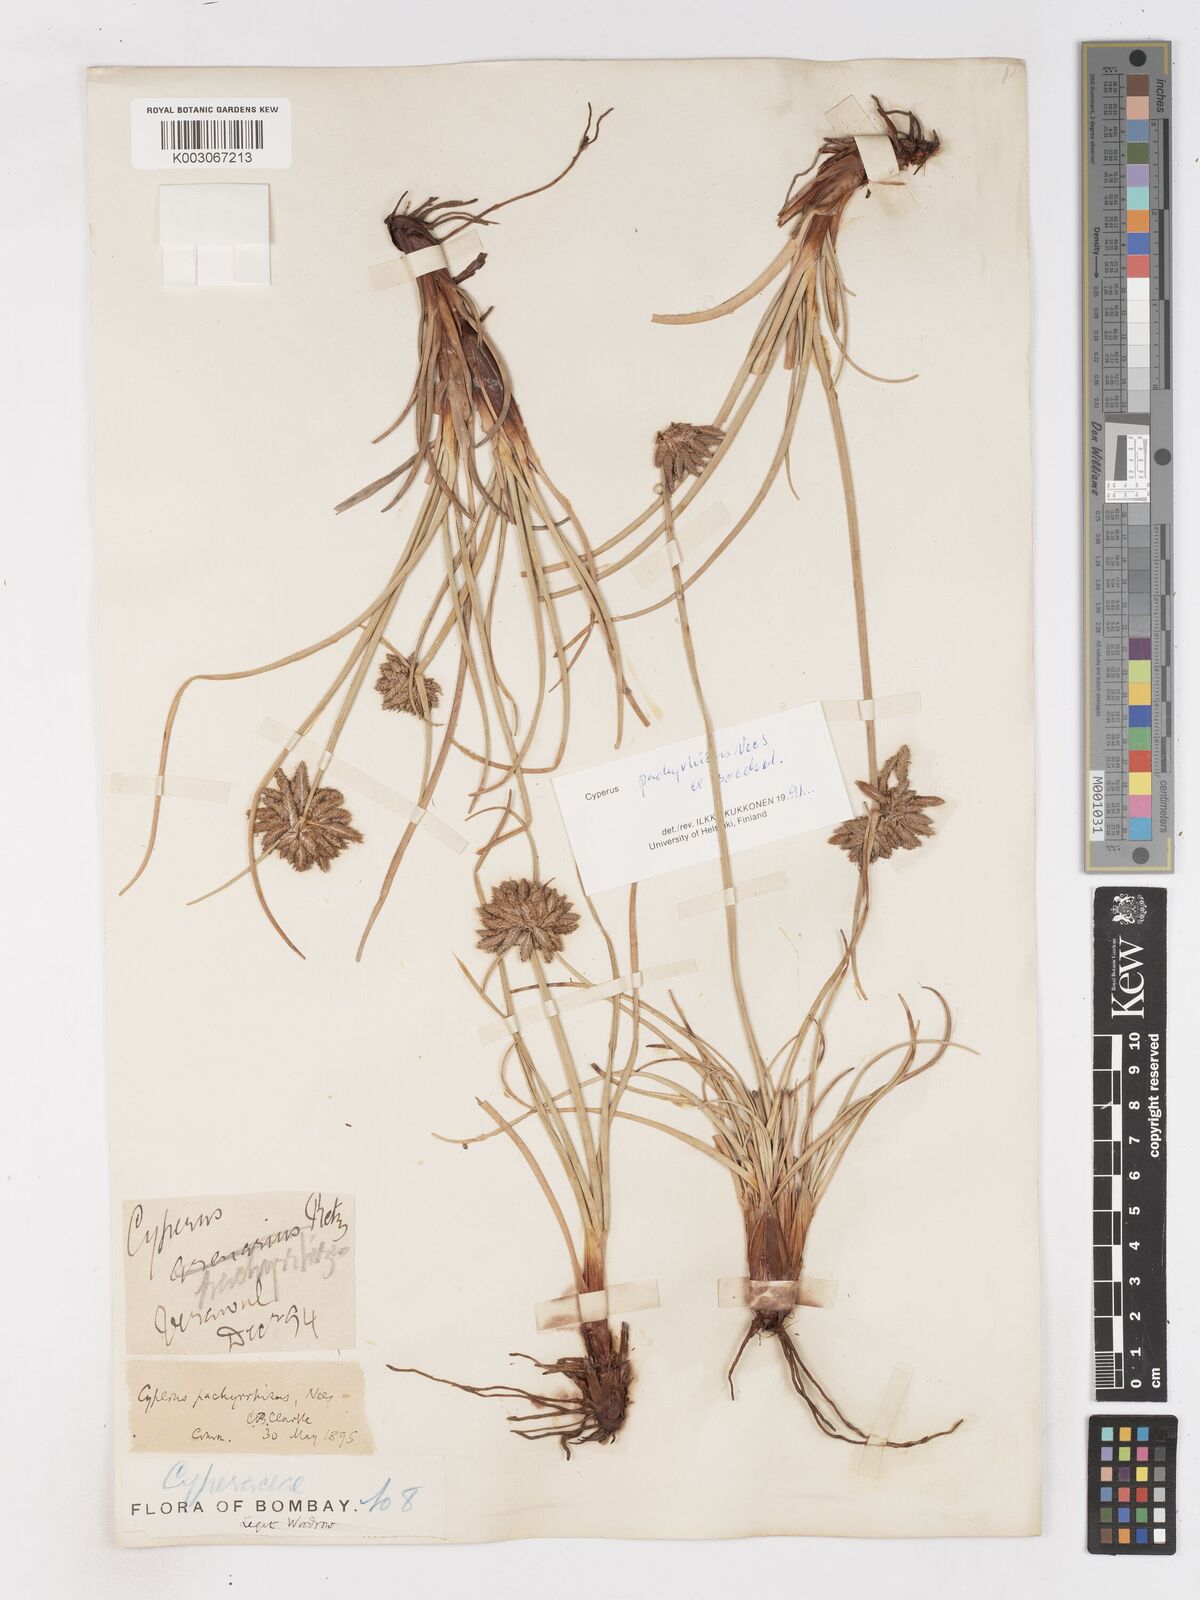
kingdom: Plantae
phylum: Tracheophyta
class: Liliopsida
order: Poales
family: Cyperaceae
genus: Cyperus
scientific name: Cyperus conglomeratus
